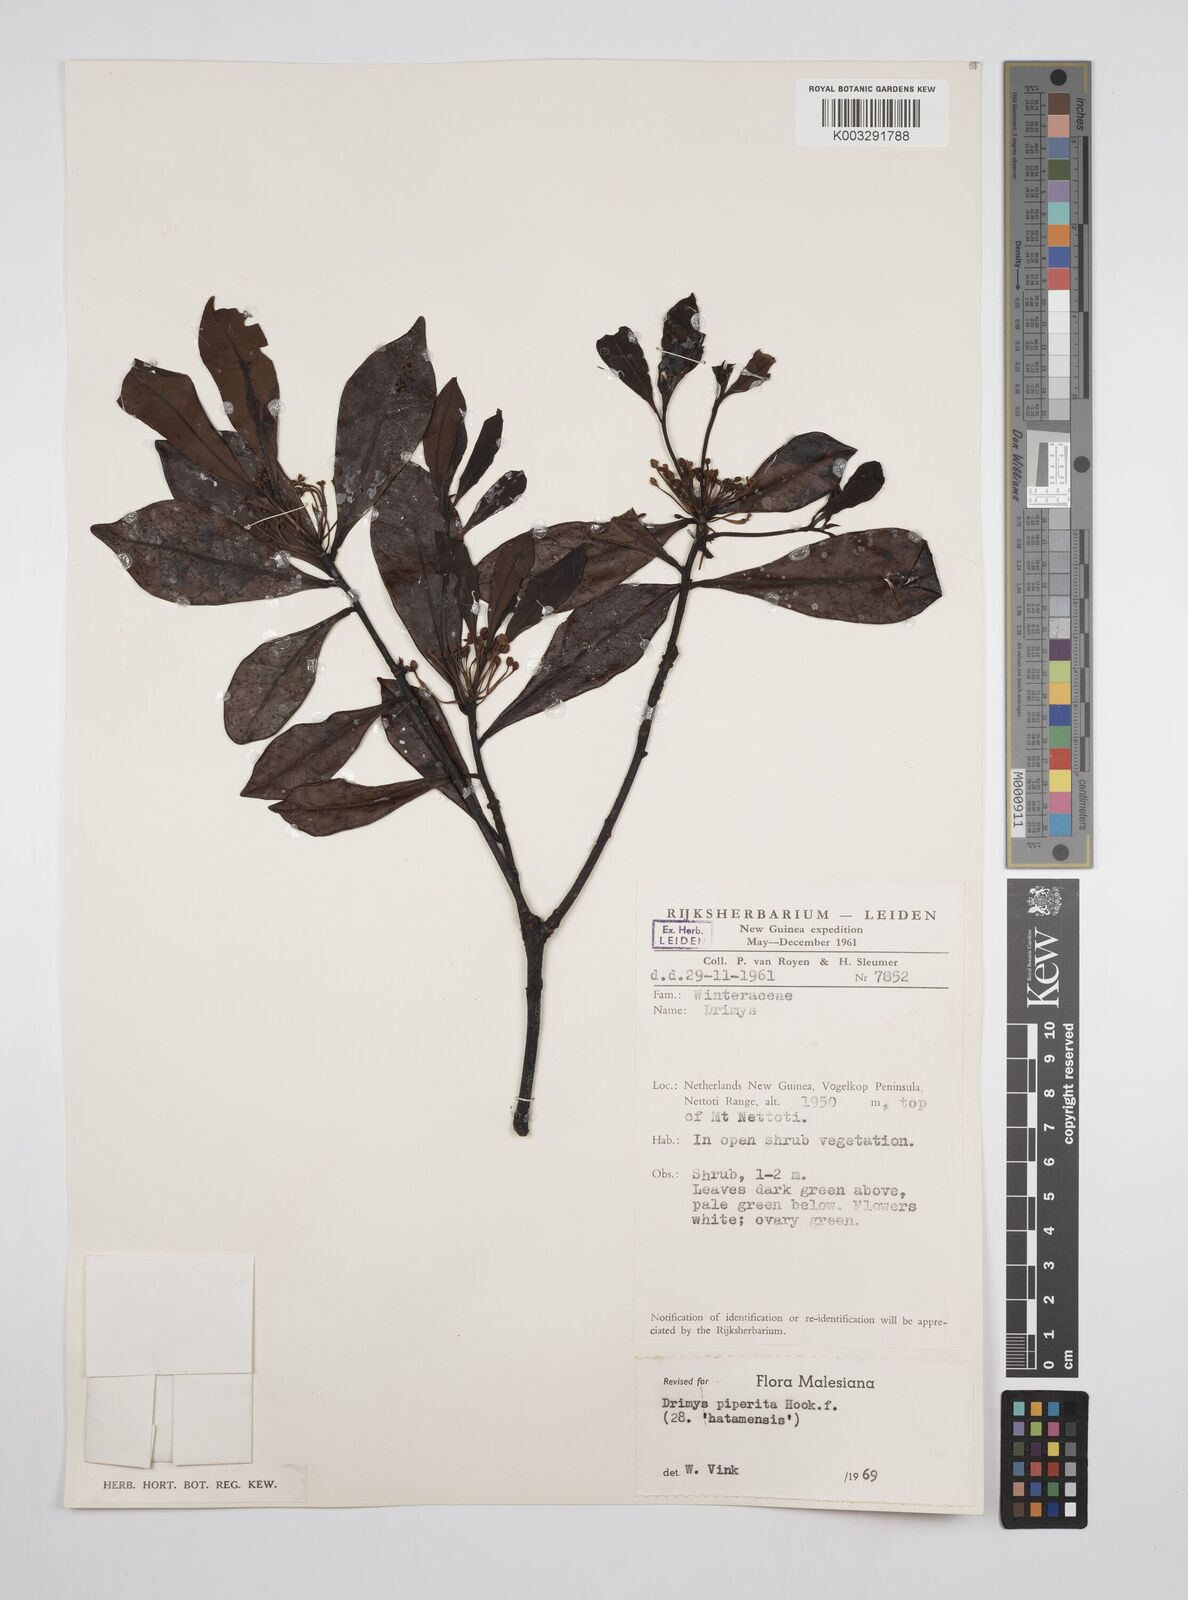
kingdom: Plantae
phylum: Tracheophyta
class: Magnoliopsida
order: Canellales
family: Winteraceae
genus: Drimys
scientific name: Drimys piperita
